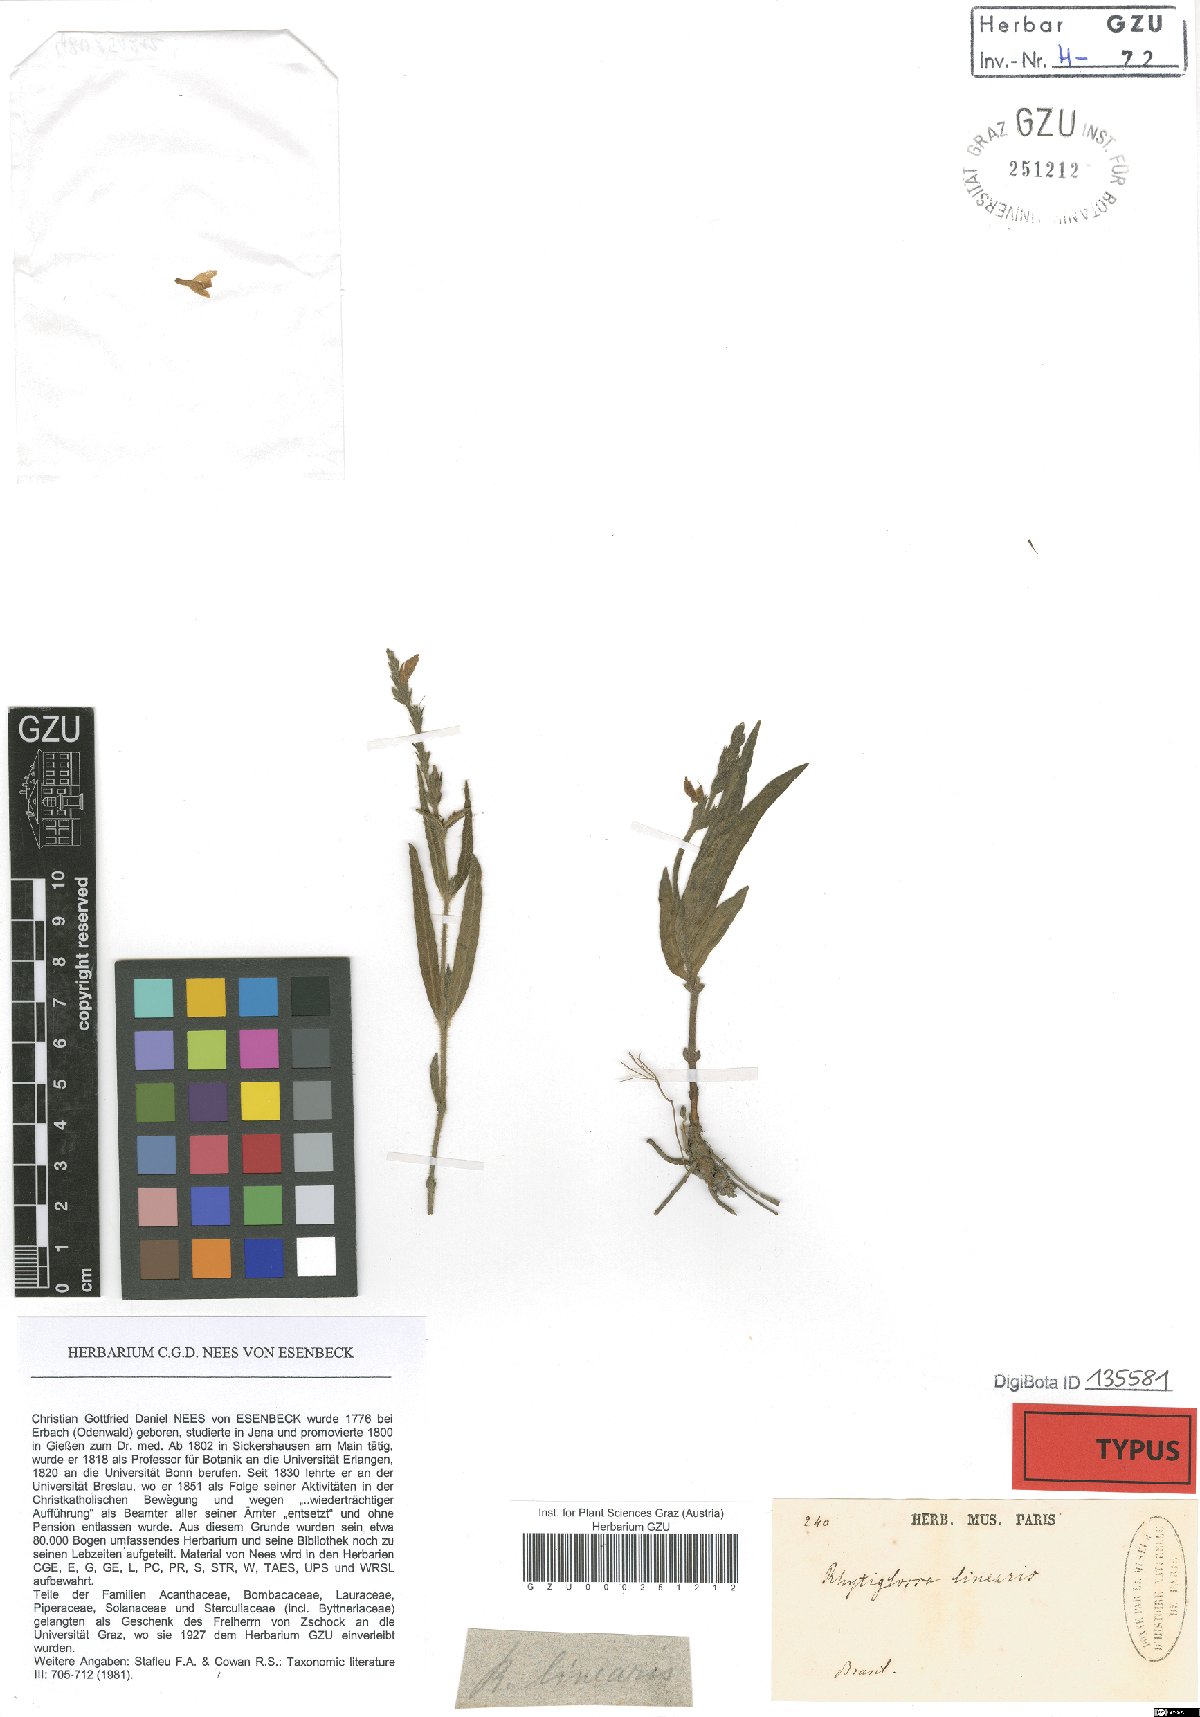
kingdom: Plantae
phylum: Tracheophyta
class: Magnoliopsida
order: Lamiales
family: Acanthaceae
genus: Dianthera
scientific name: Dianthera polygaloides
